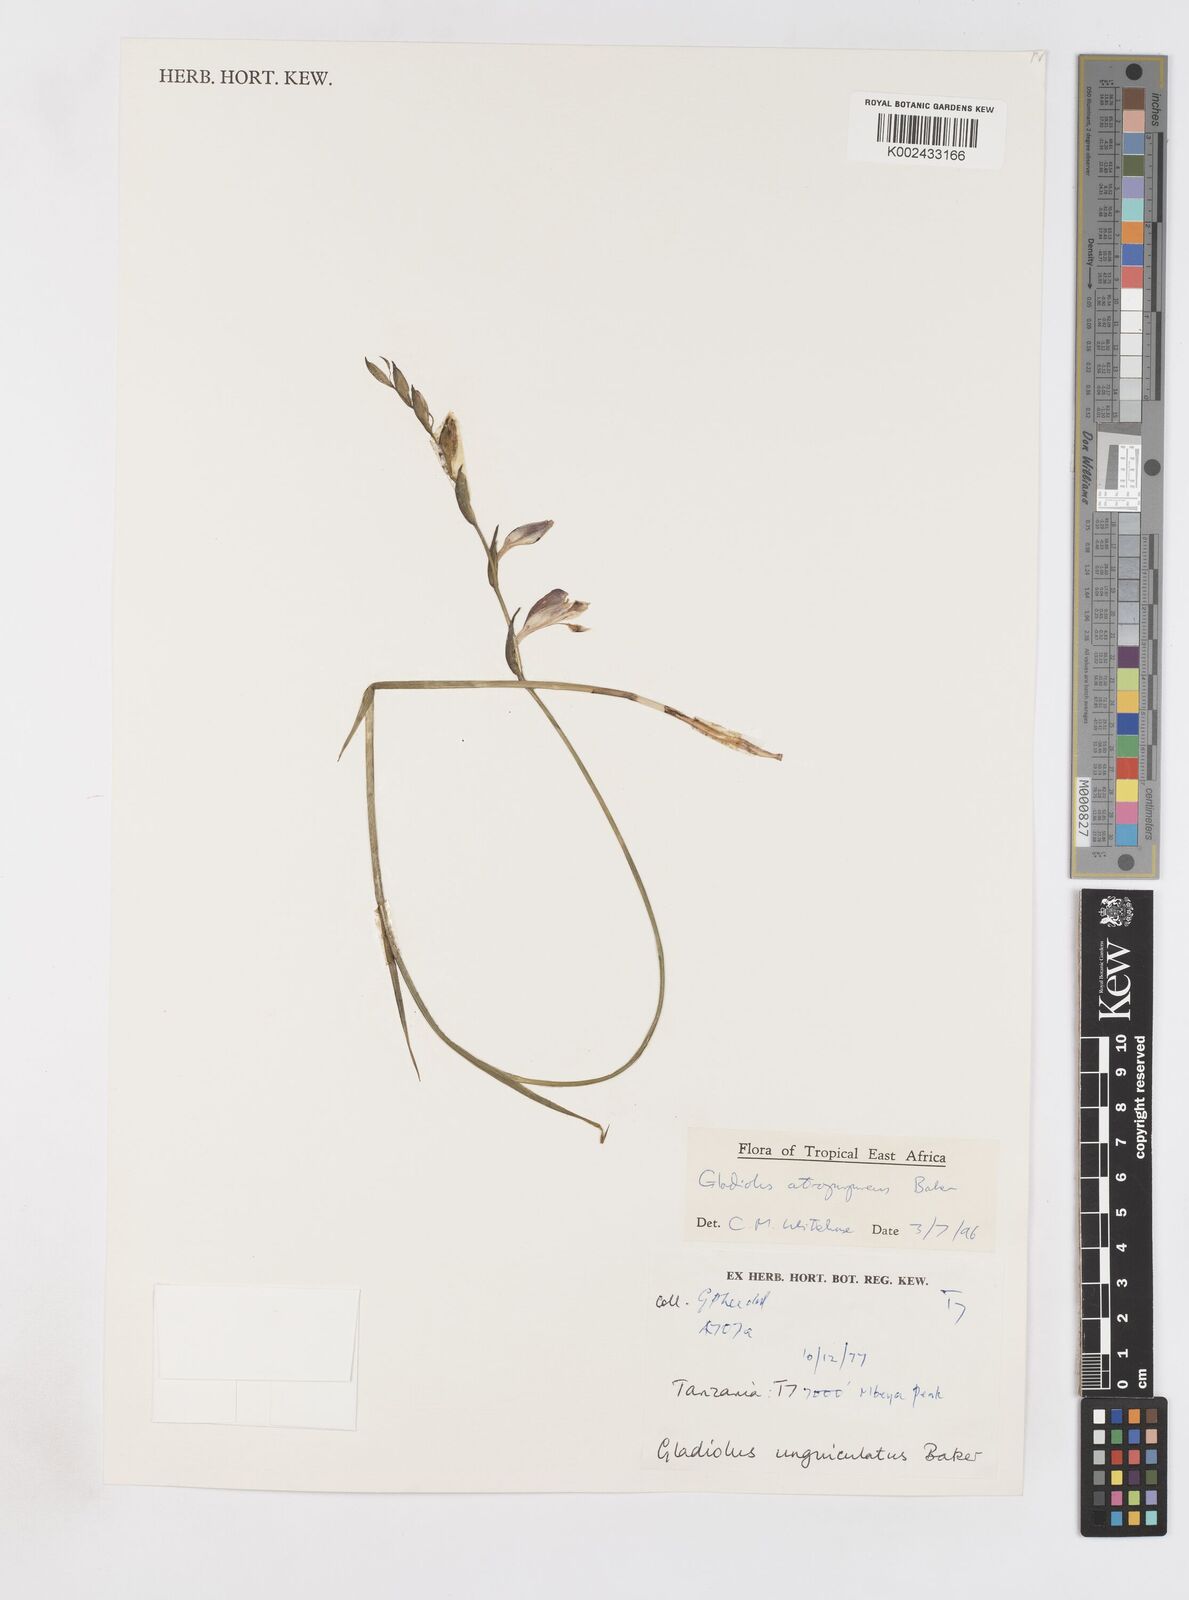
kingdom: Plantae
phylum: Tracheophyta
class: Liliopsida
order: Asparagales
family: Iridaceae
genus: Gladiolus
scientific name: Gladiolus atropurpureus
